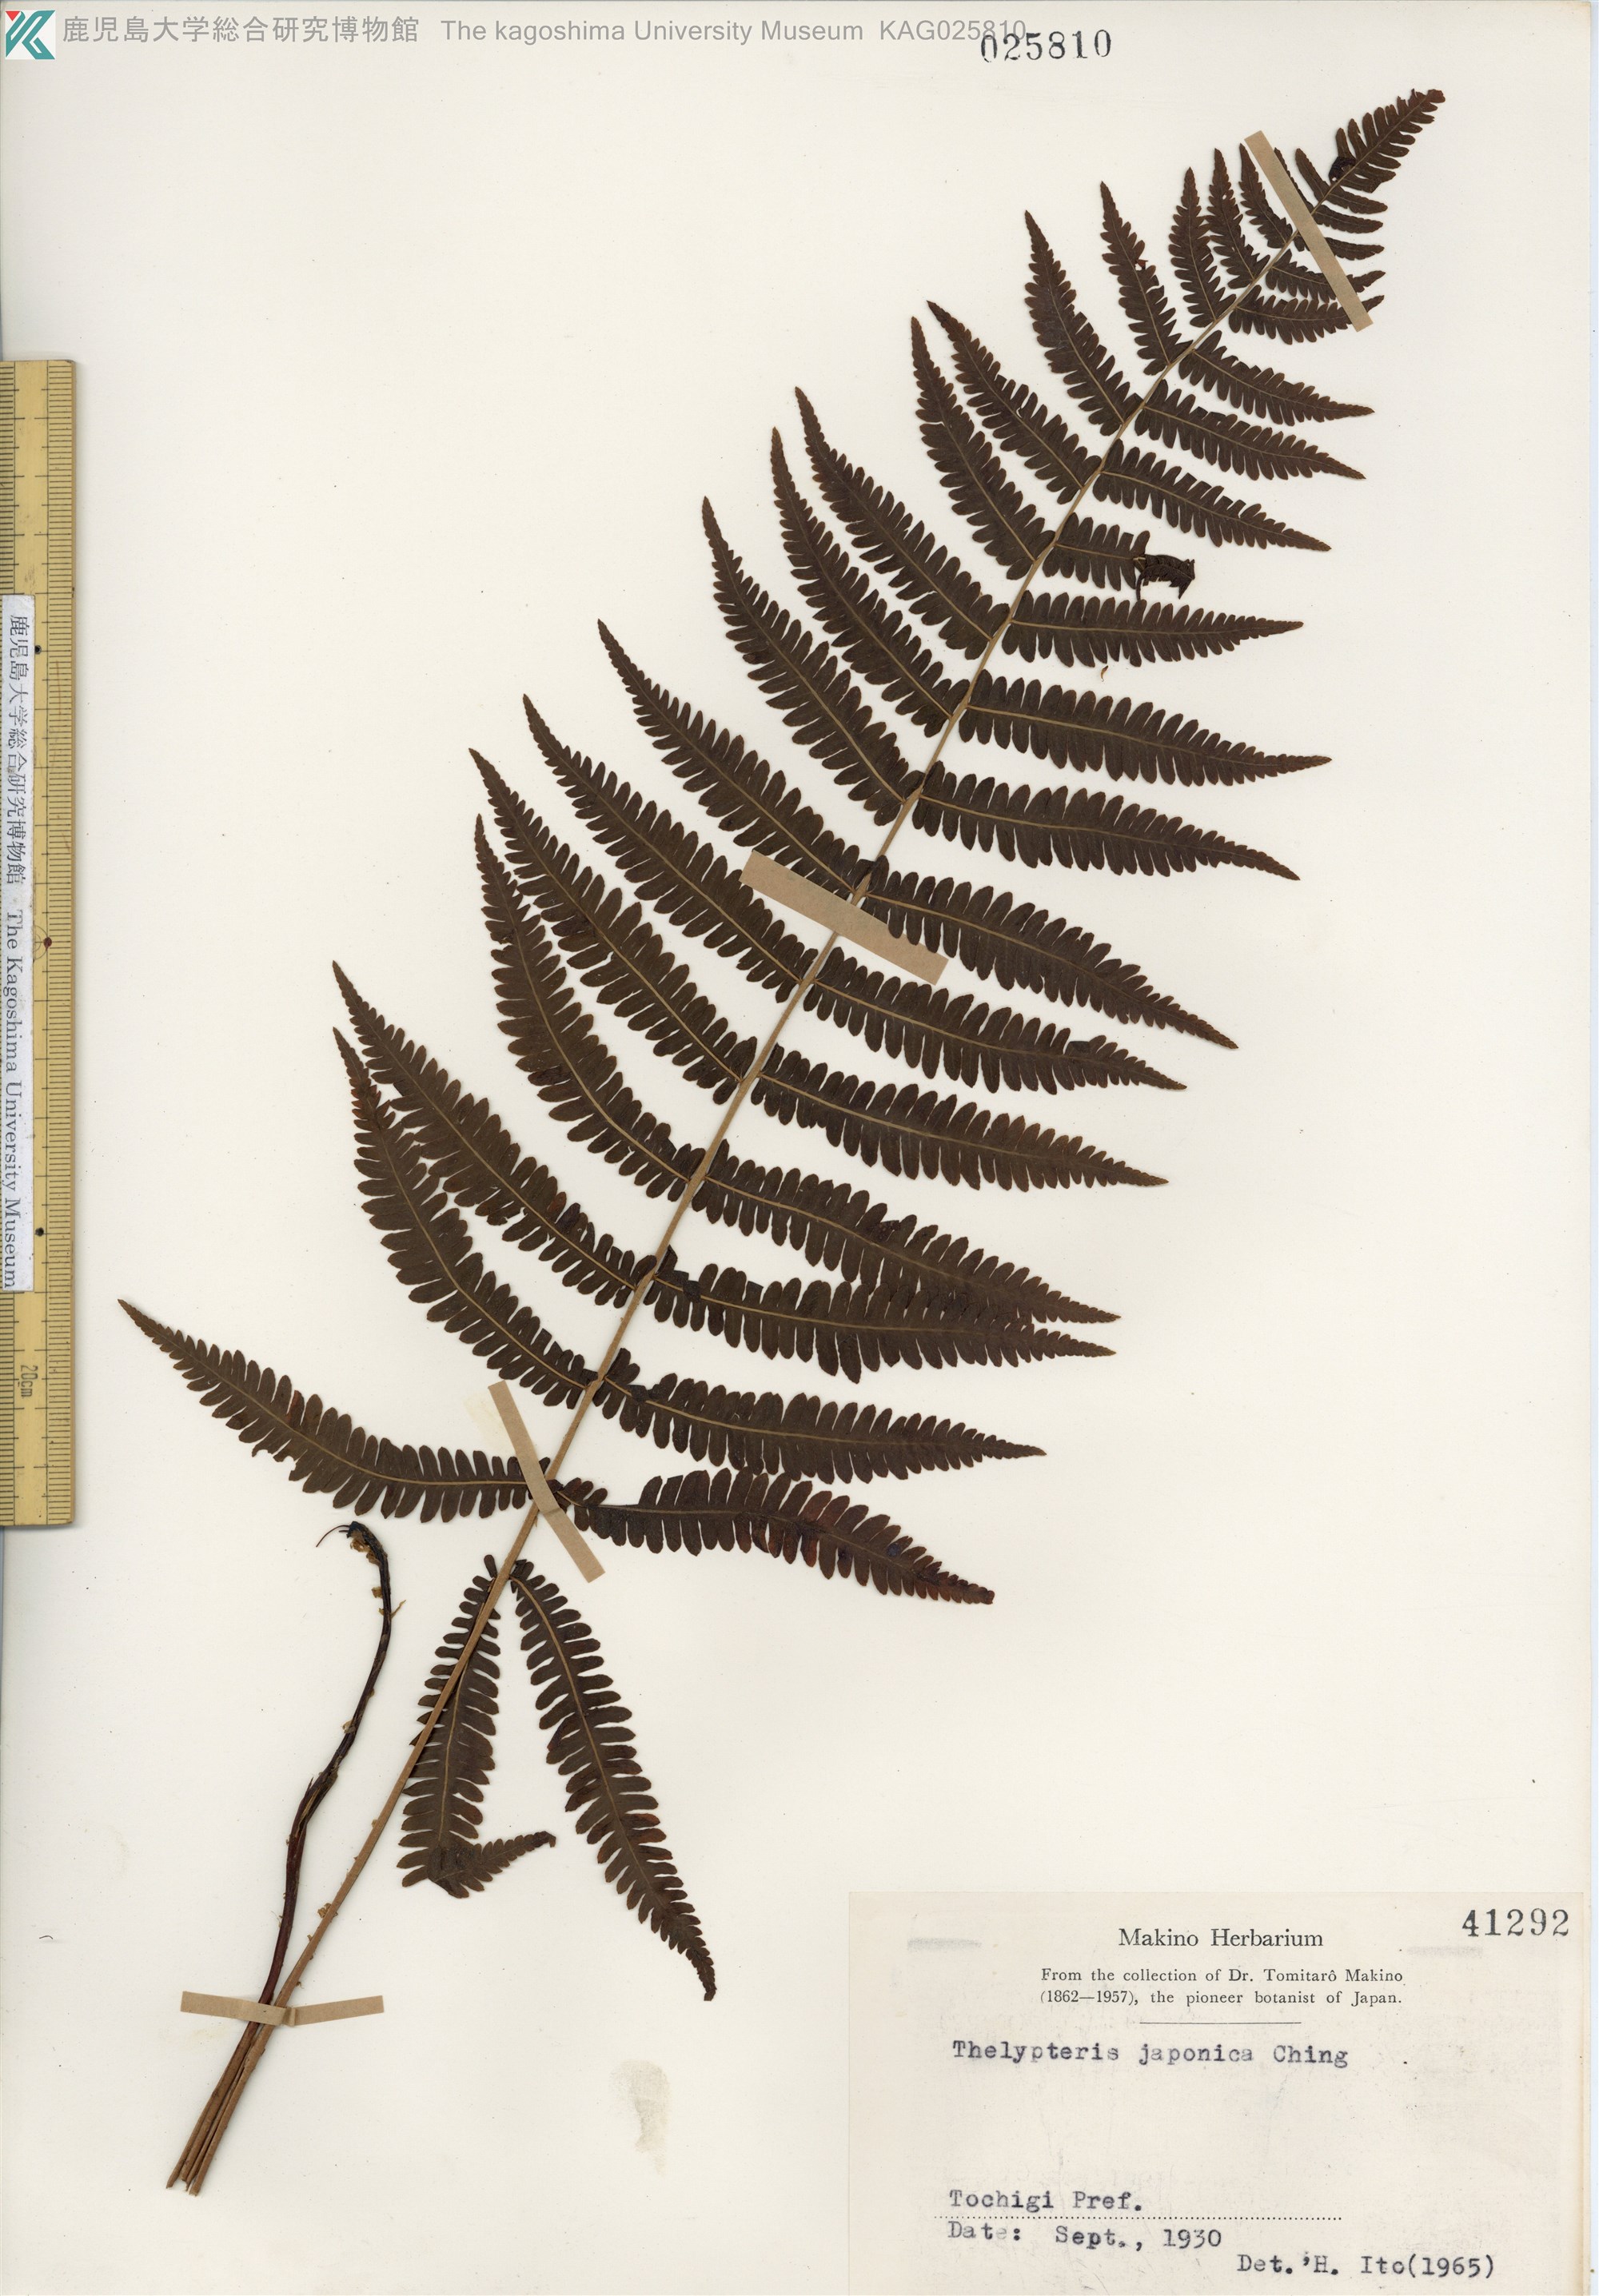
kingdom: Plantae
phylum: Tracheophyta
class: Polypodiopsida
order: Polypodiales
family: Thelypteridaceae
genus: Coryphopteris
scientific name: Coryphopteris japonica
